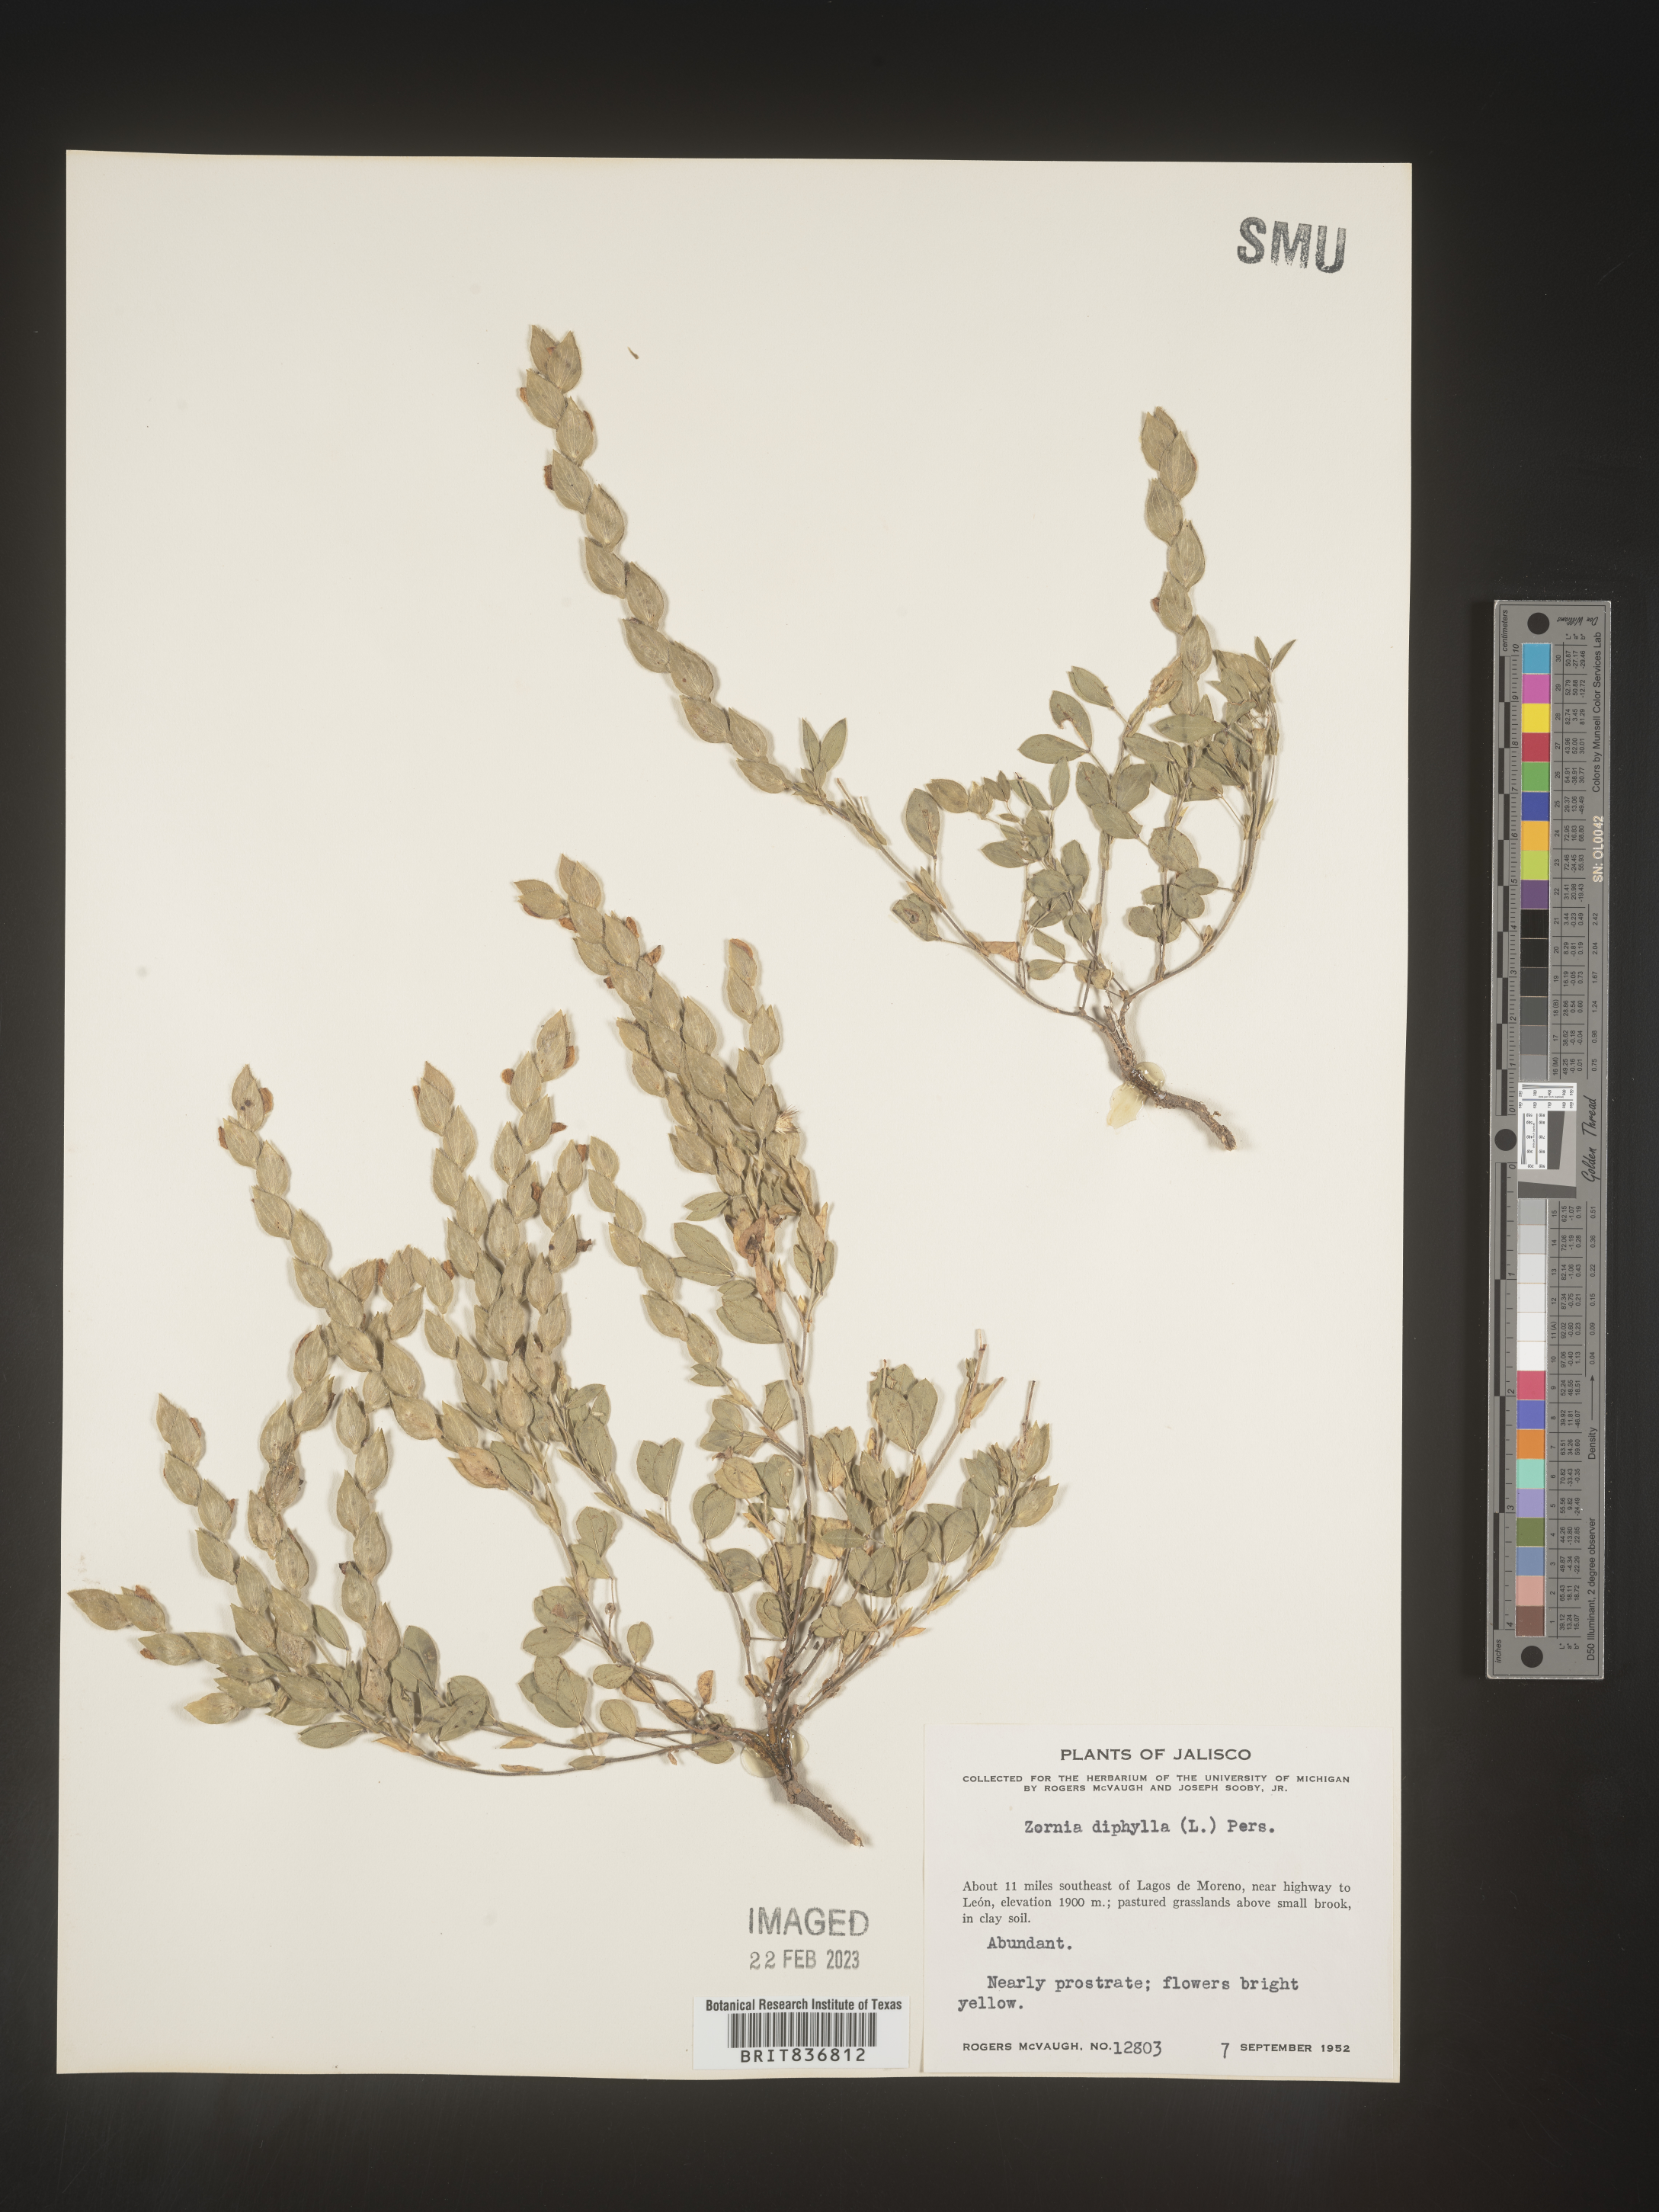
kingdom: Plantae
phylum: Tracheophyta
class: Magnoliopsida
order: Fabales
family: Fabaceae
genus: Zornia
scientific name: Zornia
